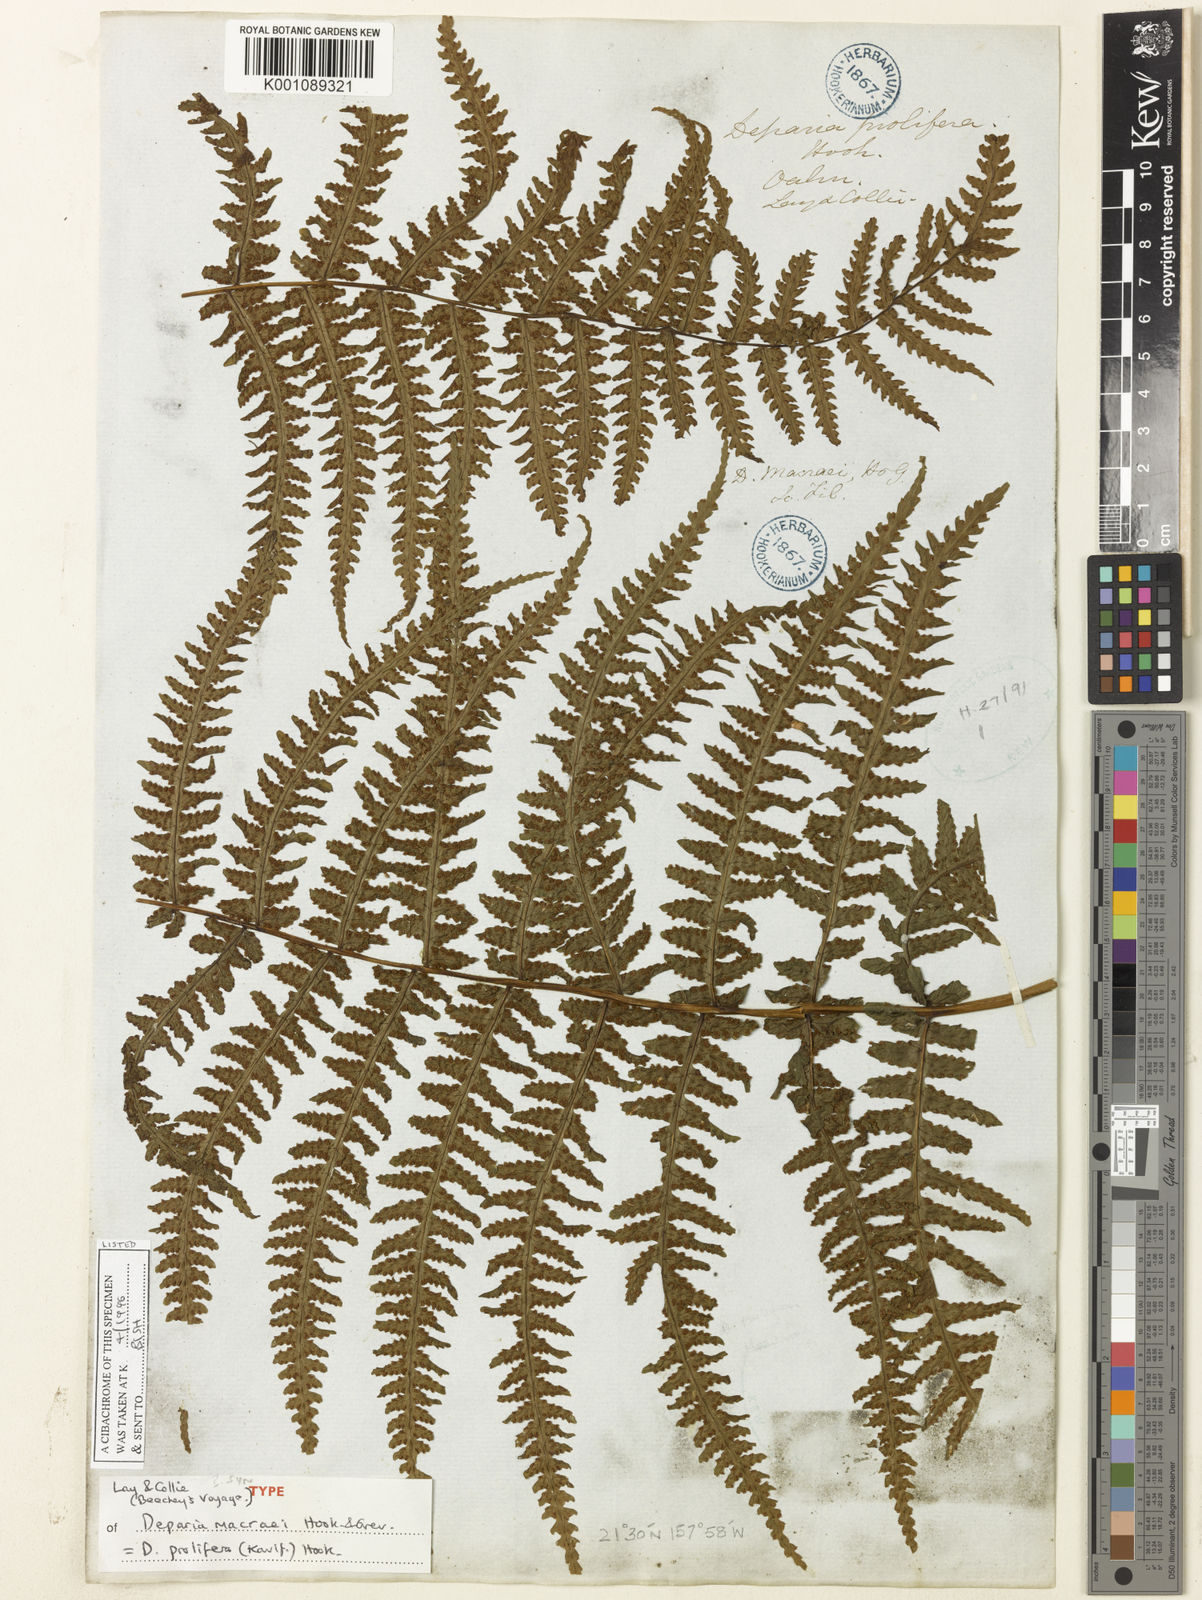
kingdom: Plantae
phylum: Tracheophyta
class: Polypodiopsida
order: Polypodiales
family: Athyriaceae
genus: Deparia
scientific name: Deparia prolifera
